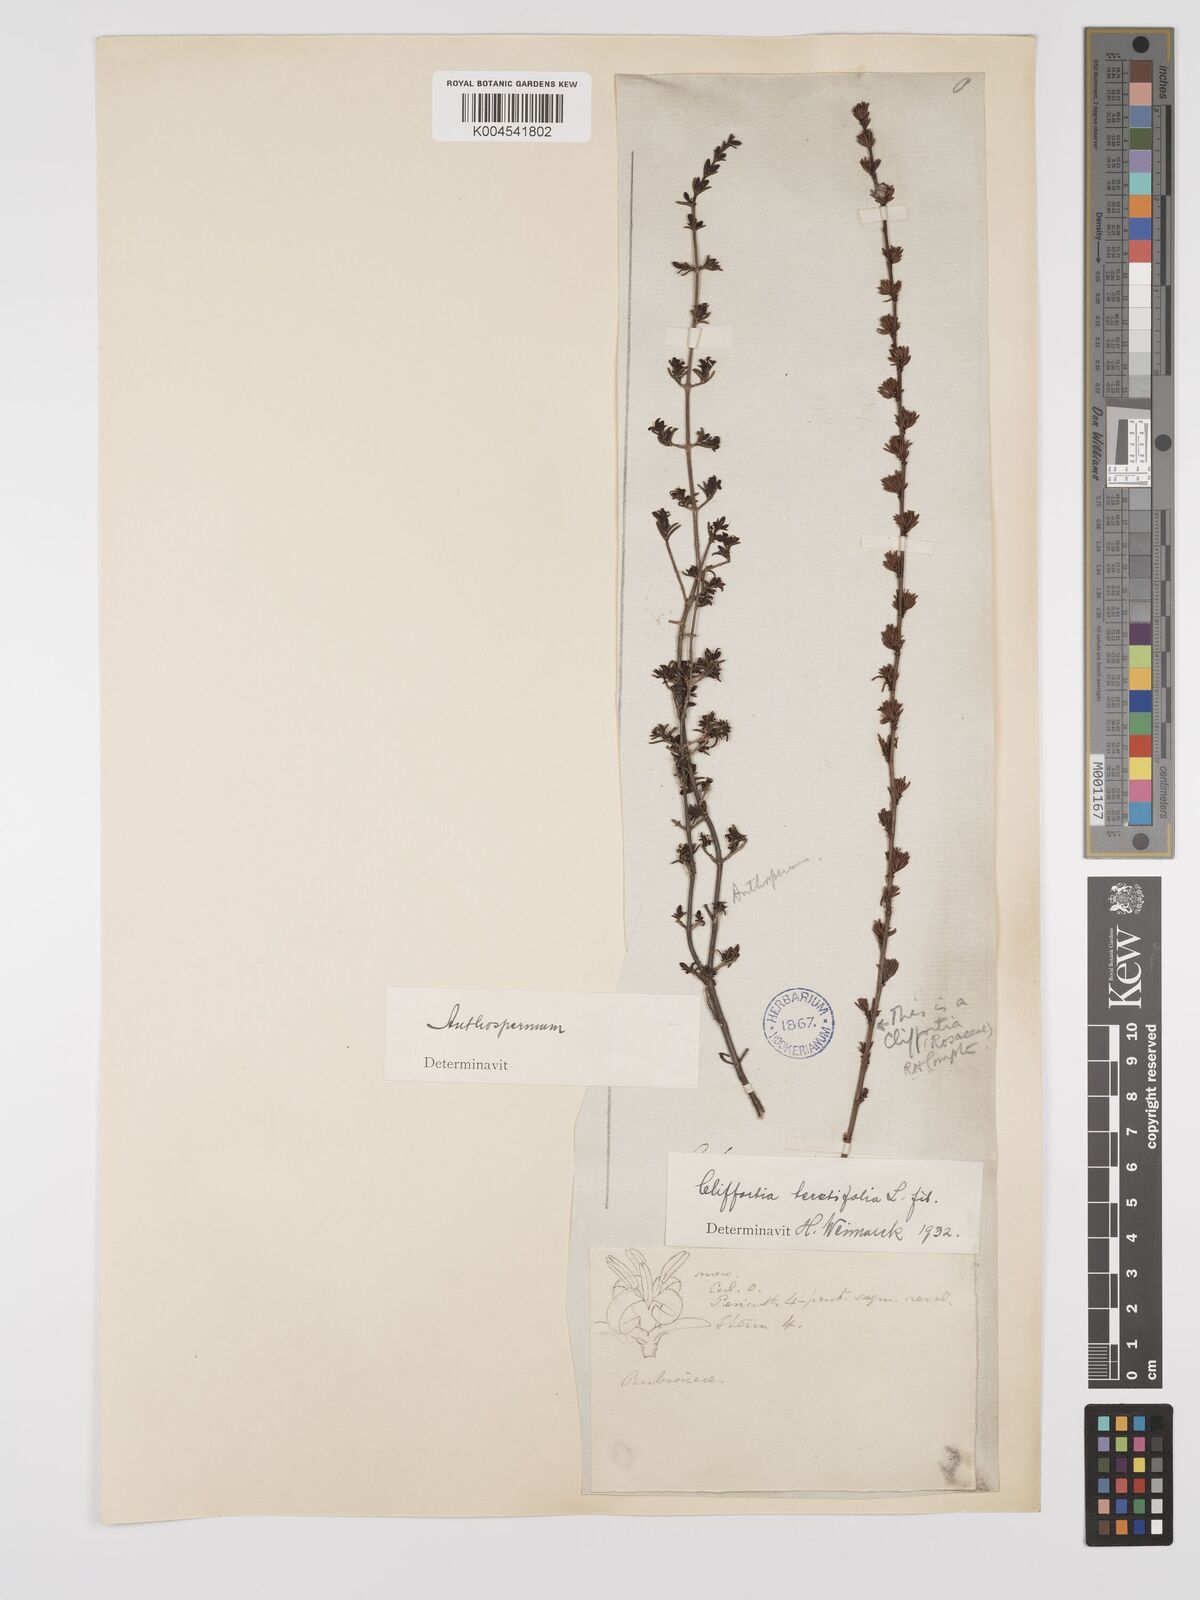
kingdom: Plantae
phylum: Tracheophyta
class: Magnoliopsida
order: Rosales
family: Rosaceae
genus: Cliffortia
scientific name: Cliffortia teretifolia
